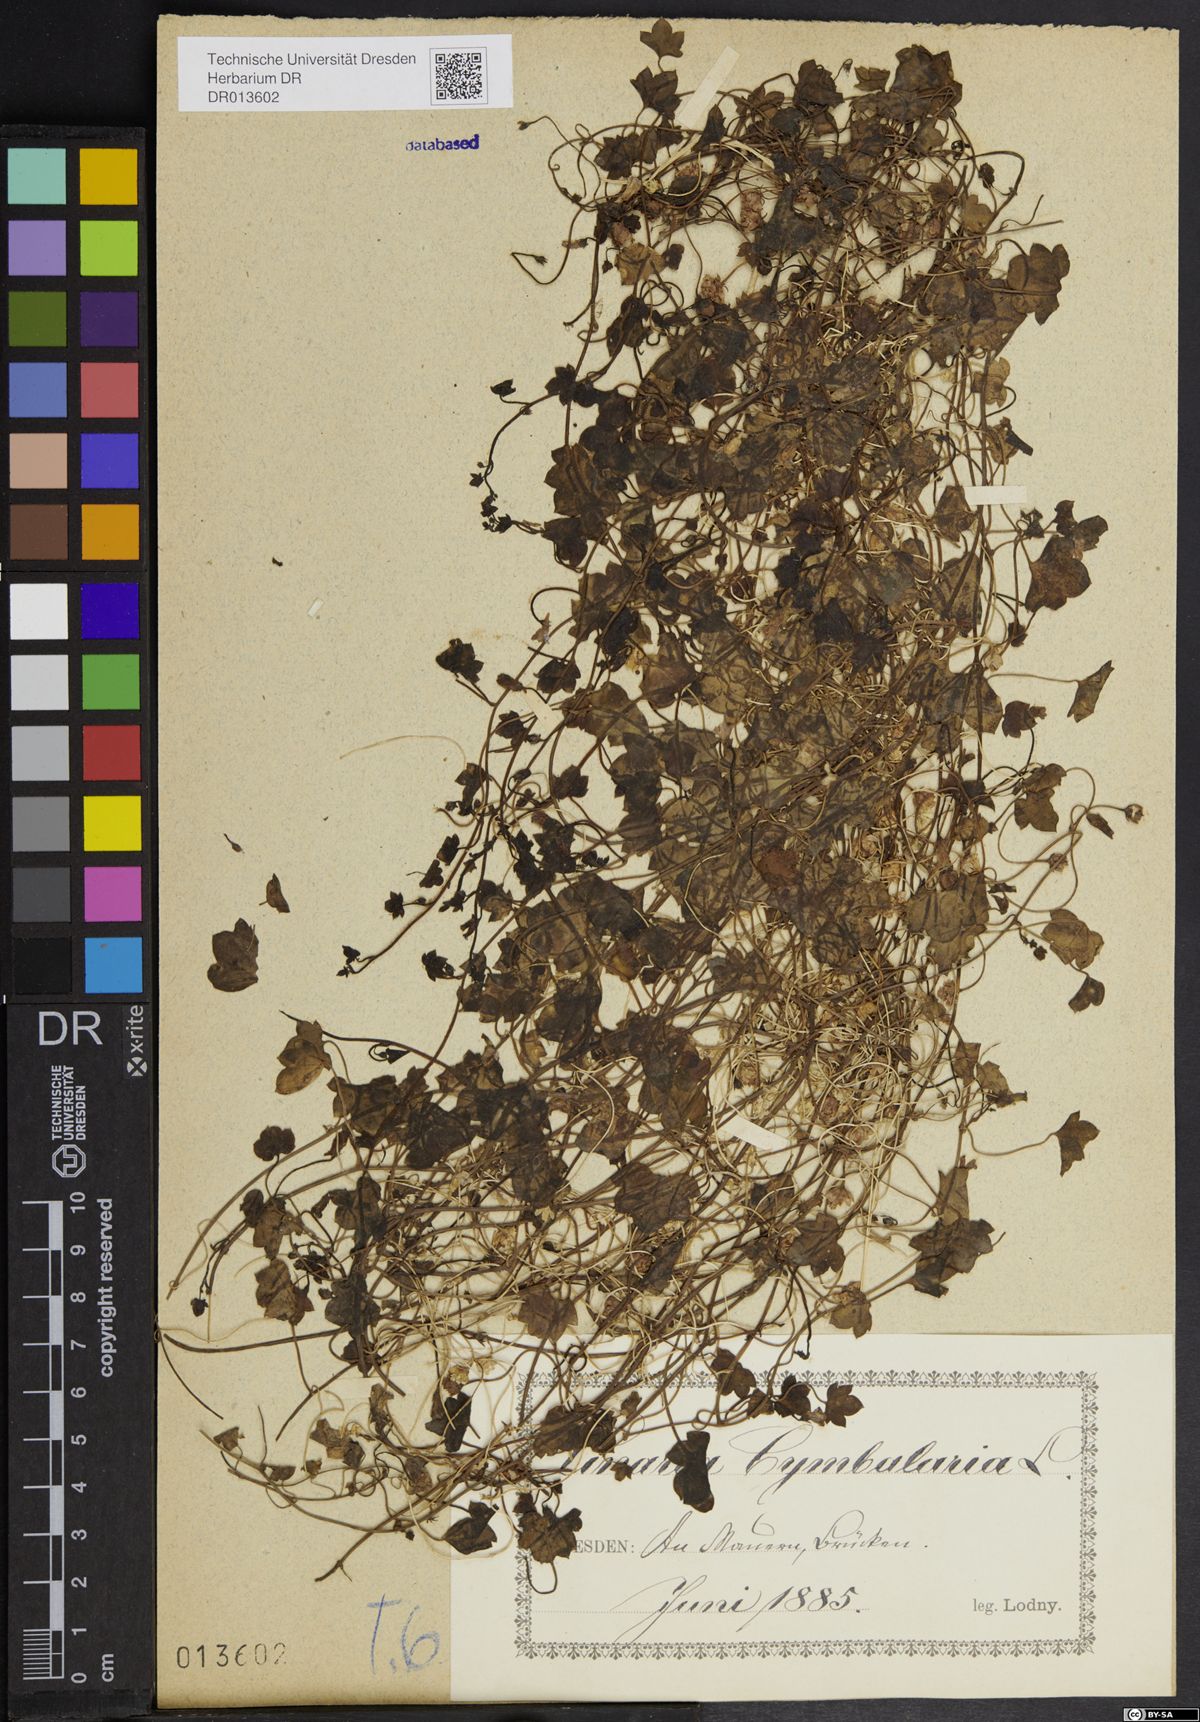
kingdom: Plantae
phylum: Tracheophyta
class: Magnoliopsida
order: Lamiales
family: Plantaginaceae
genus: Cymbalaria
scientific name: Cymbalaria muralis
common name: Ivy-leaved toadflax
